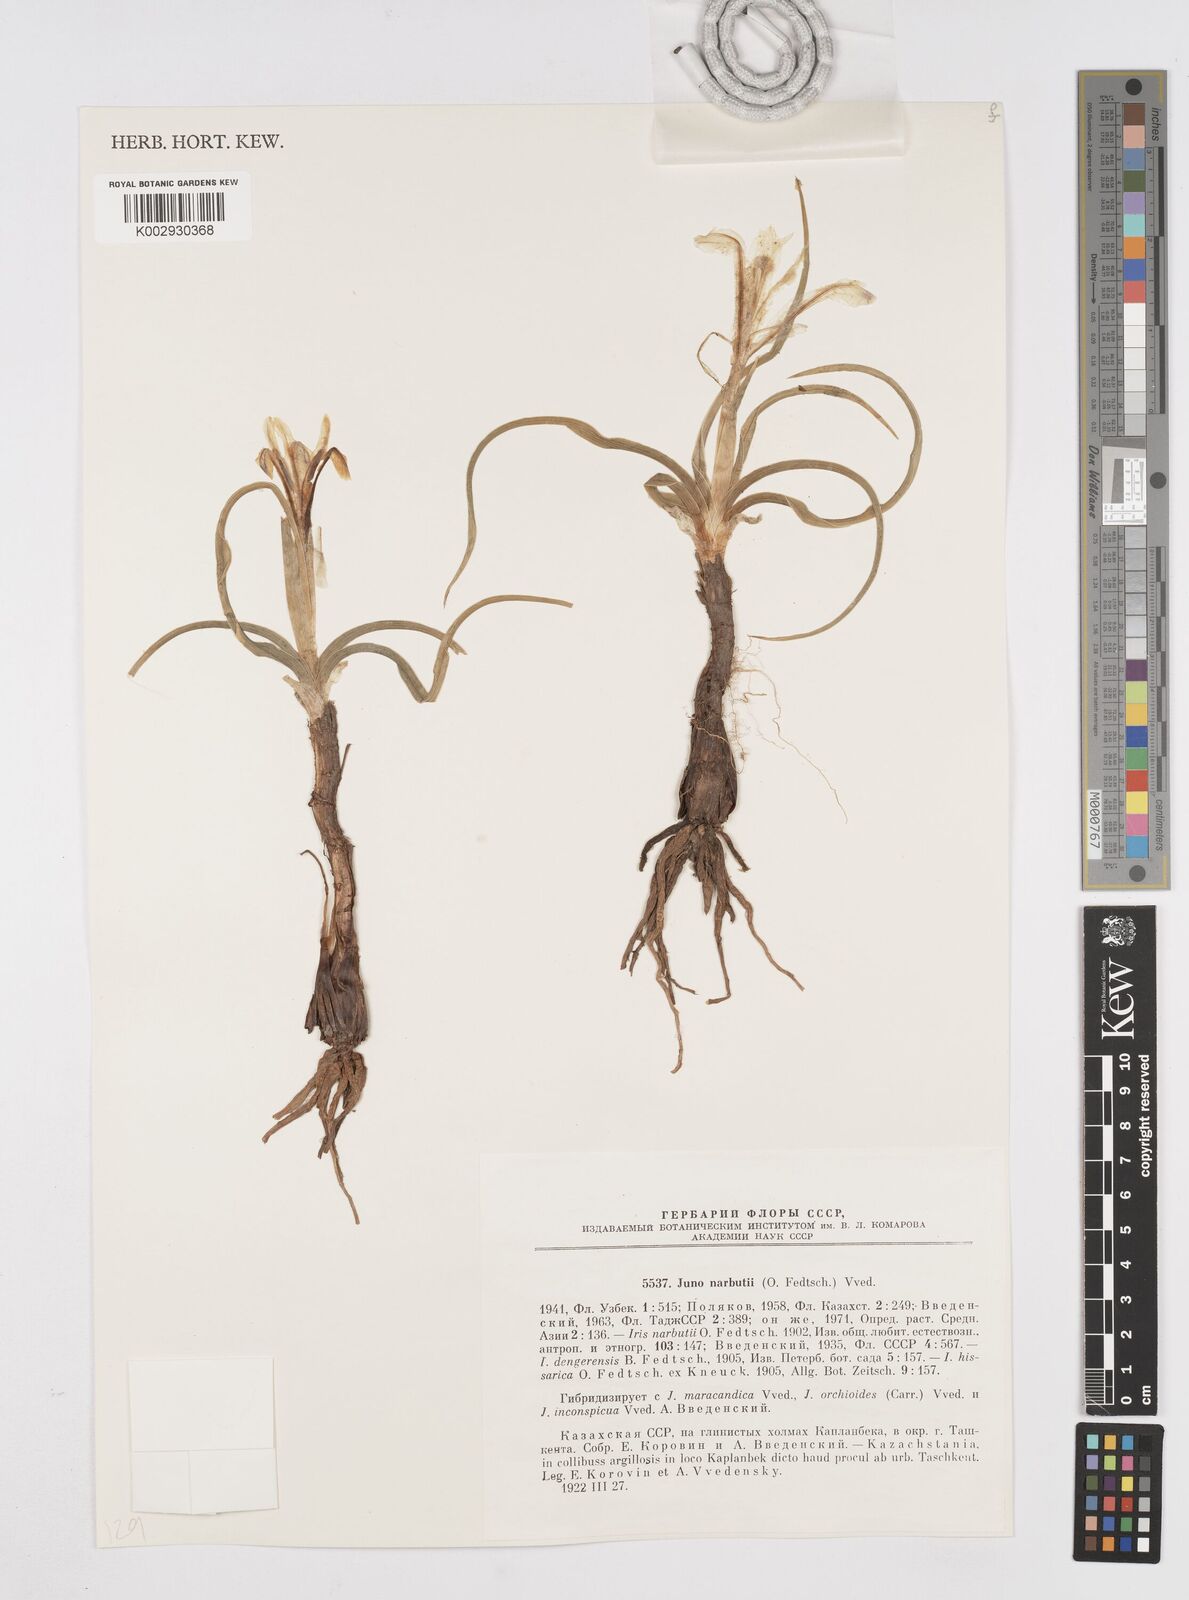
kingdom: Plantae
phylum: Tracheophyta
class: Liliopsida
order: Asparagales
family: Iridaceae
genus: Iris
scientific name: Iris narbutii
